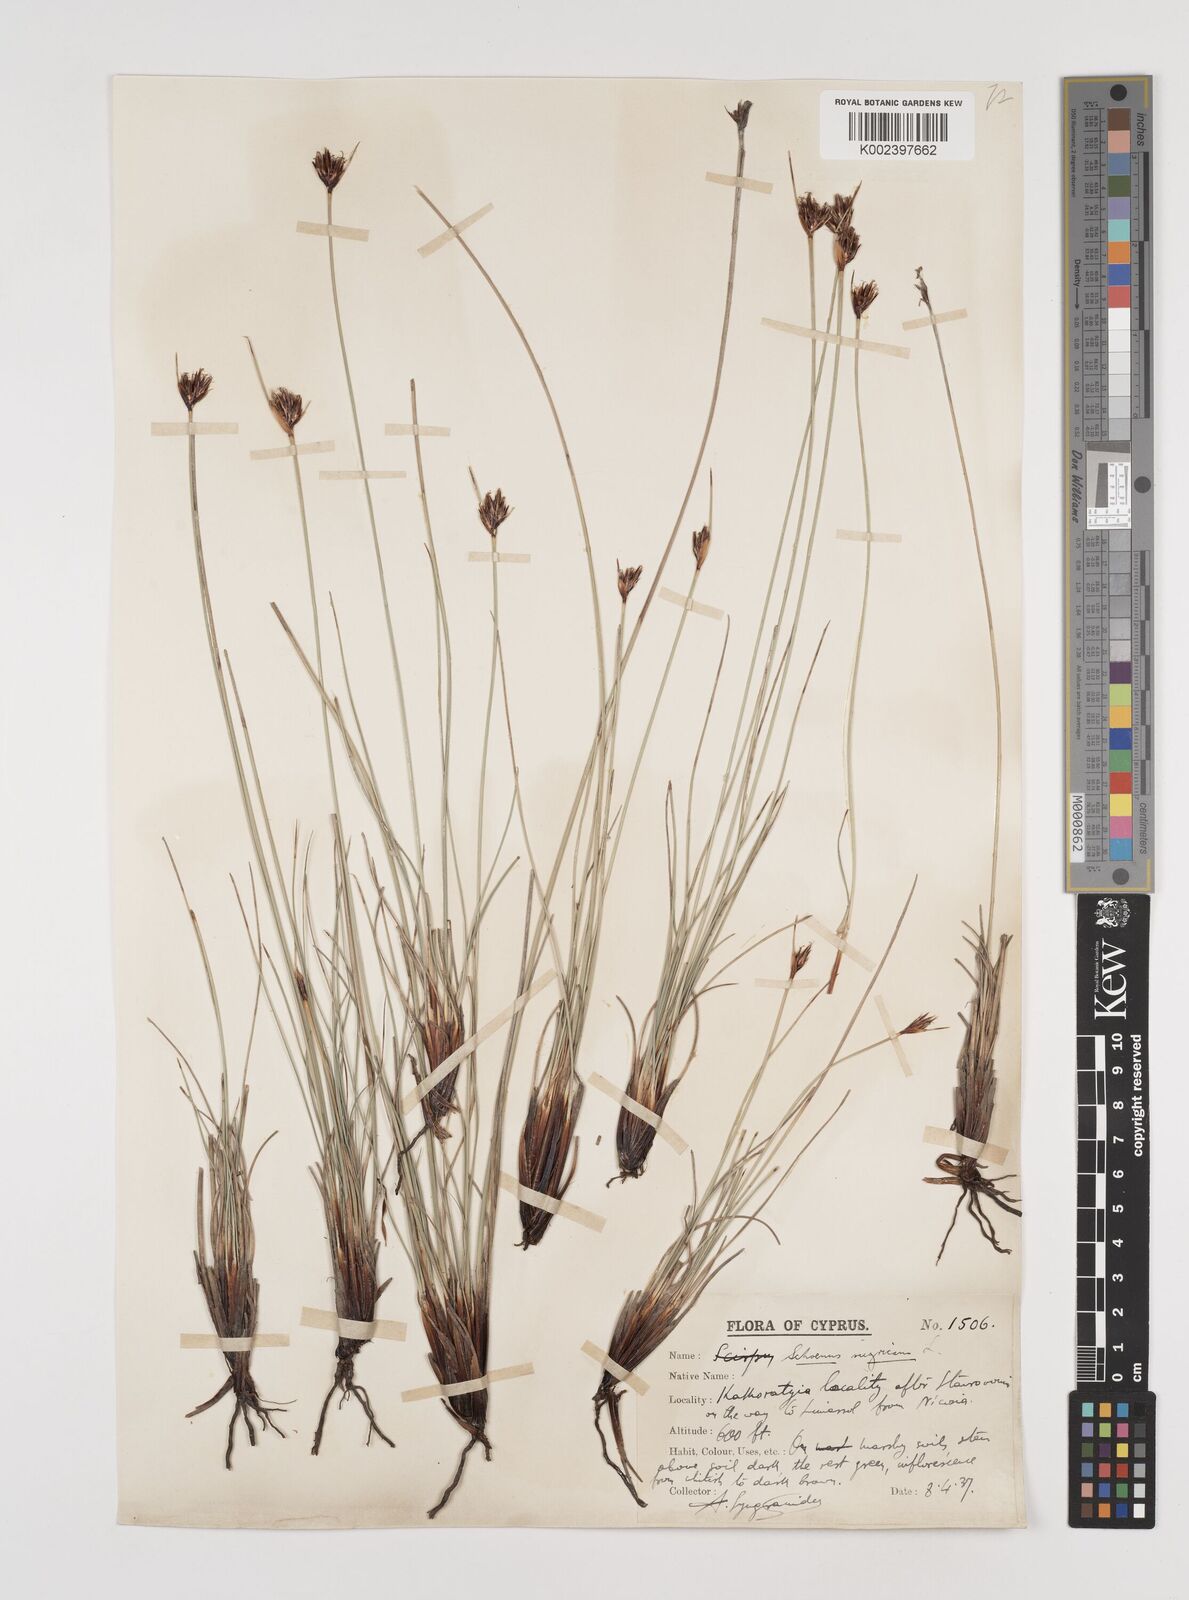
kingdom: Plantae
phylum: Tracheophyta
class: Liliopsida
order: Poales
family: Cyperaceae
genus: Schoenus
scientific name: Schoenus nigricans
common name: Black bog-rush
